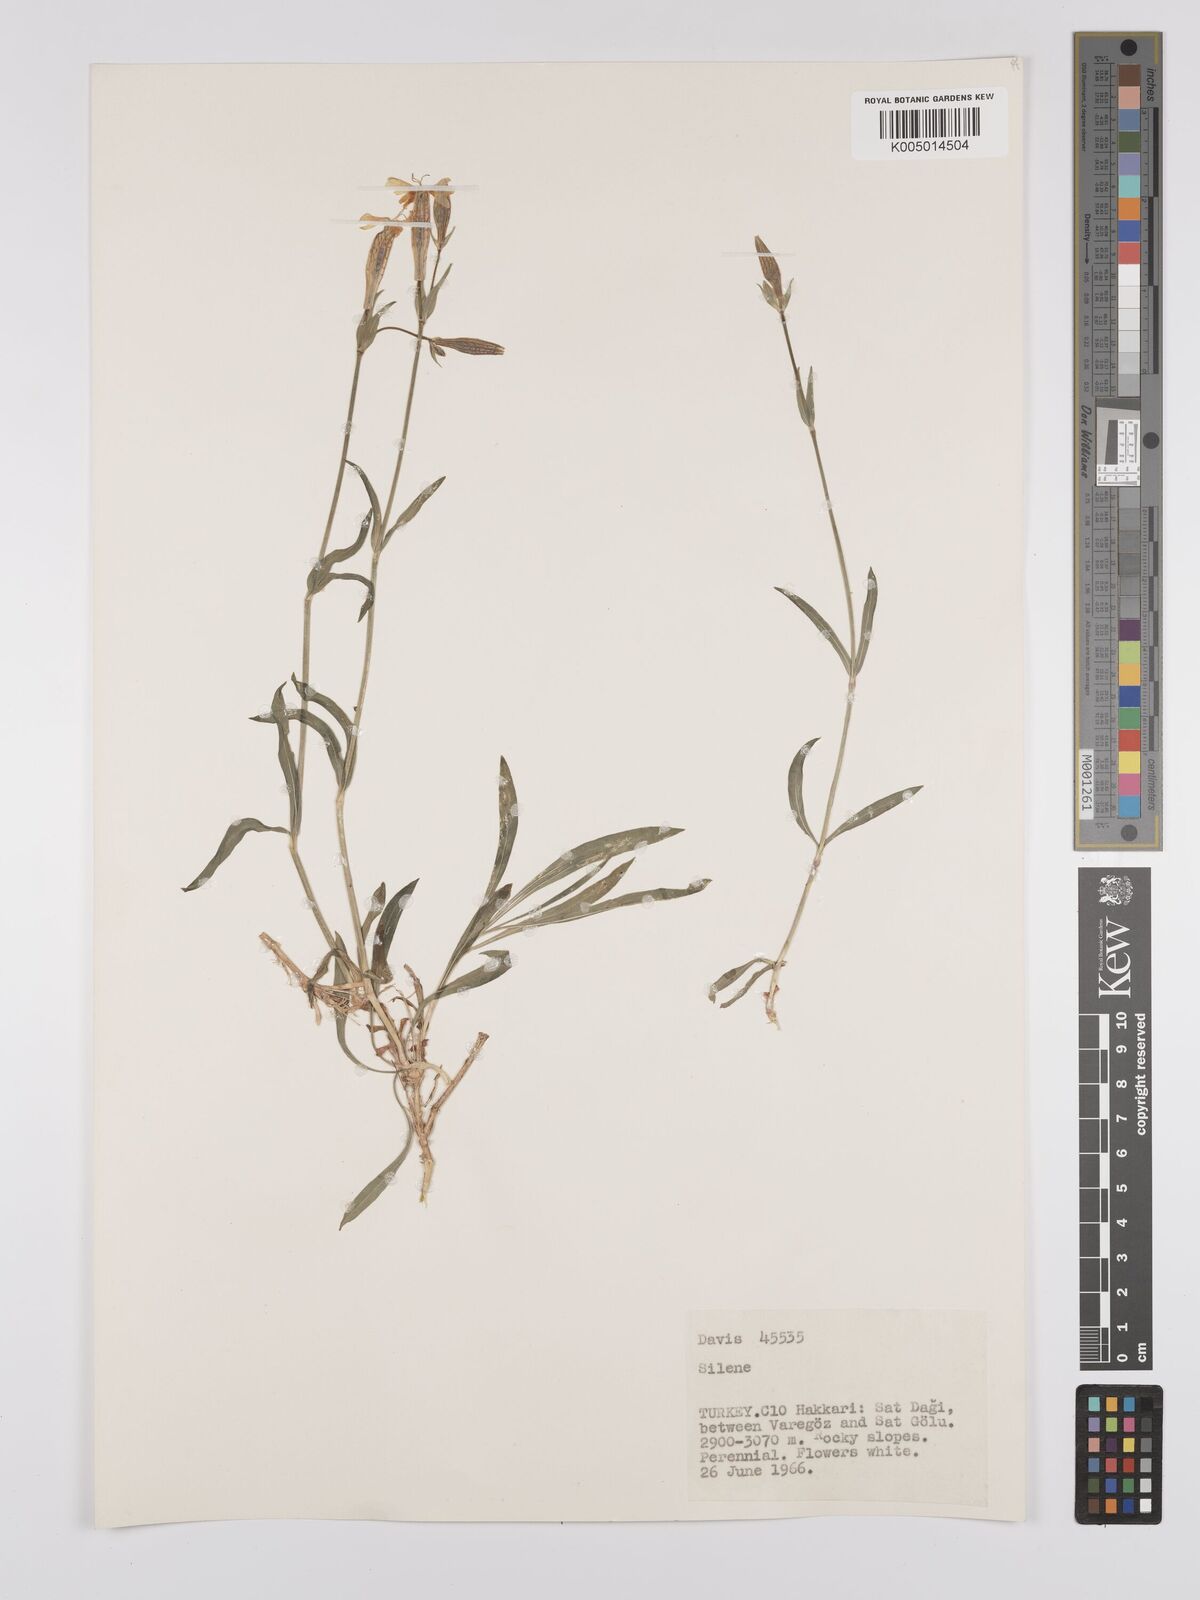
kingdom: Plantae
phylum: Tracheophyta
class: Magnoliopsida
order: Caryophyllales
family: Caryophyllaceae
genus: Silene
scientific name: Silene
